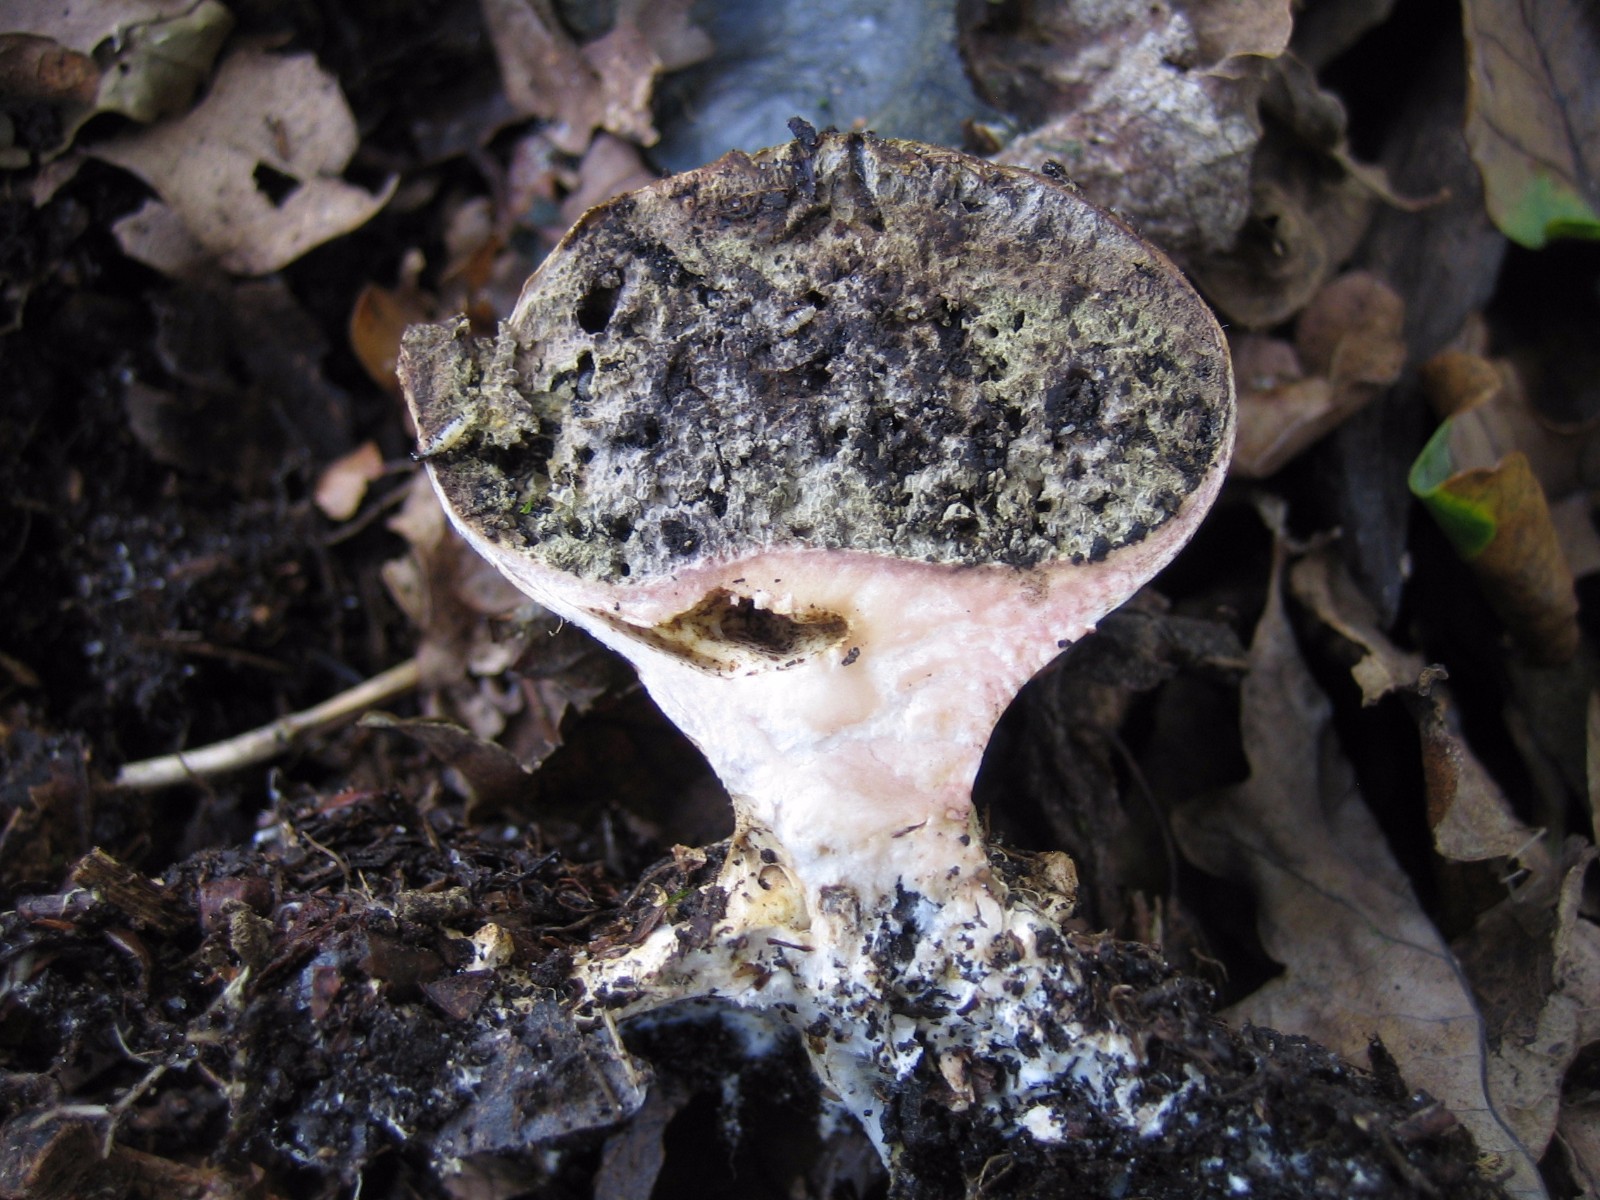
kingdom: Fungi
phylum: Basidiomycota
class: Agaricomycetes
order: Boletales
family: Sclerodermataceae
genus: Scleroderma
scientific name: Scleroderma verrucosum
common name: stilket bruskbold
